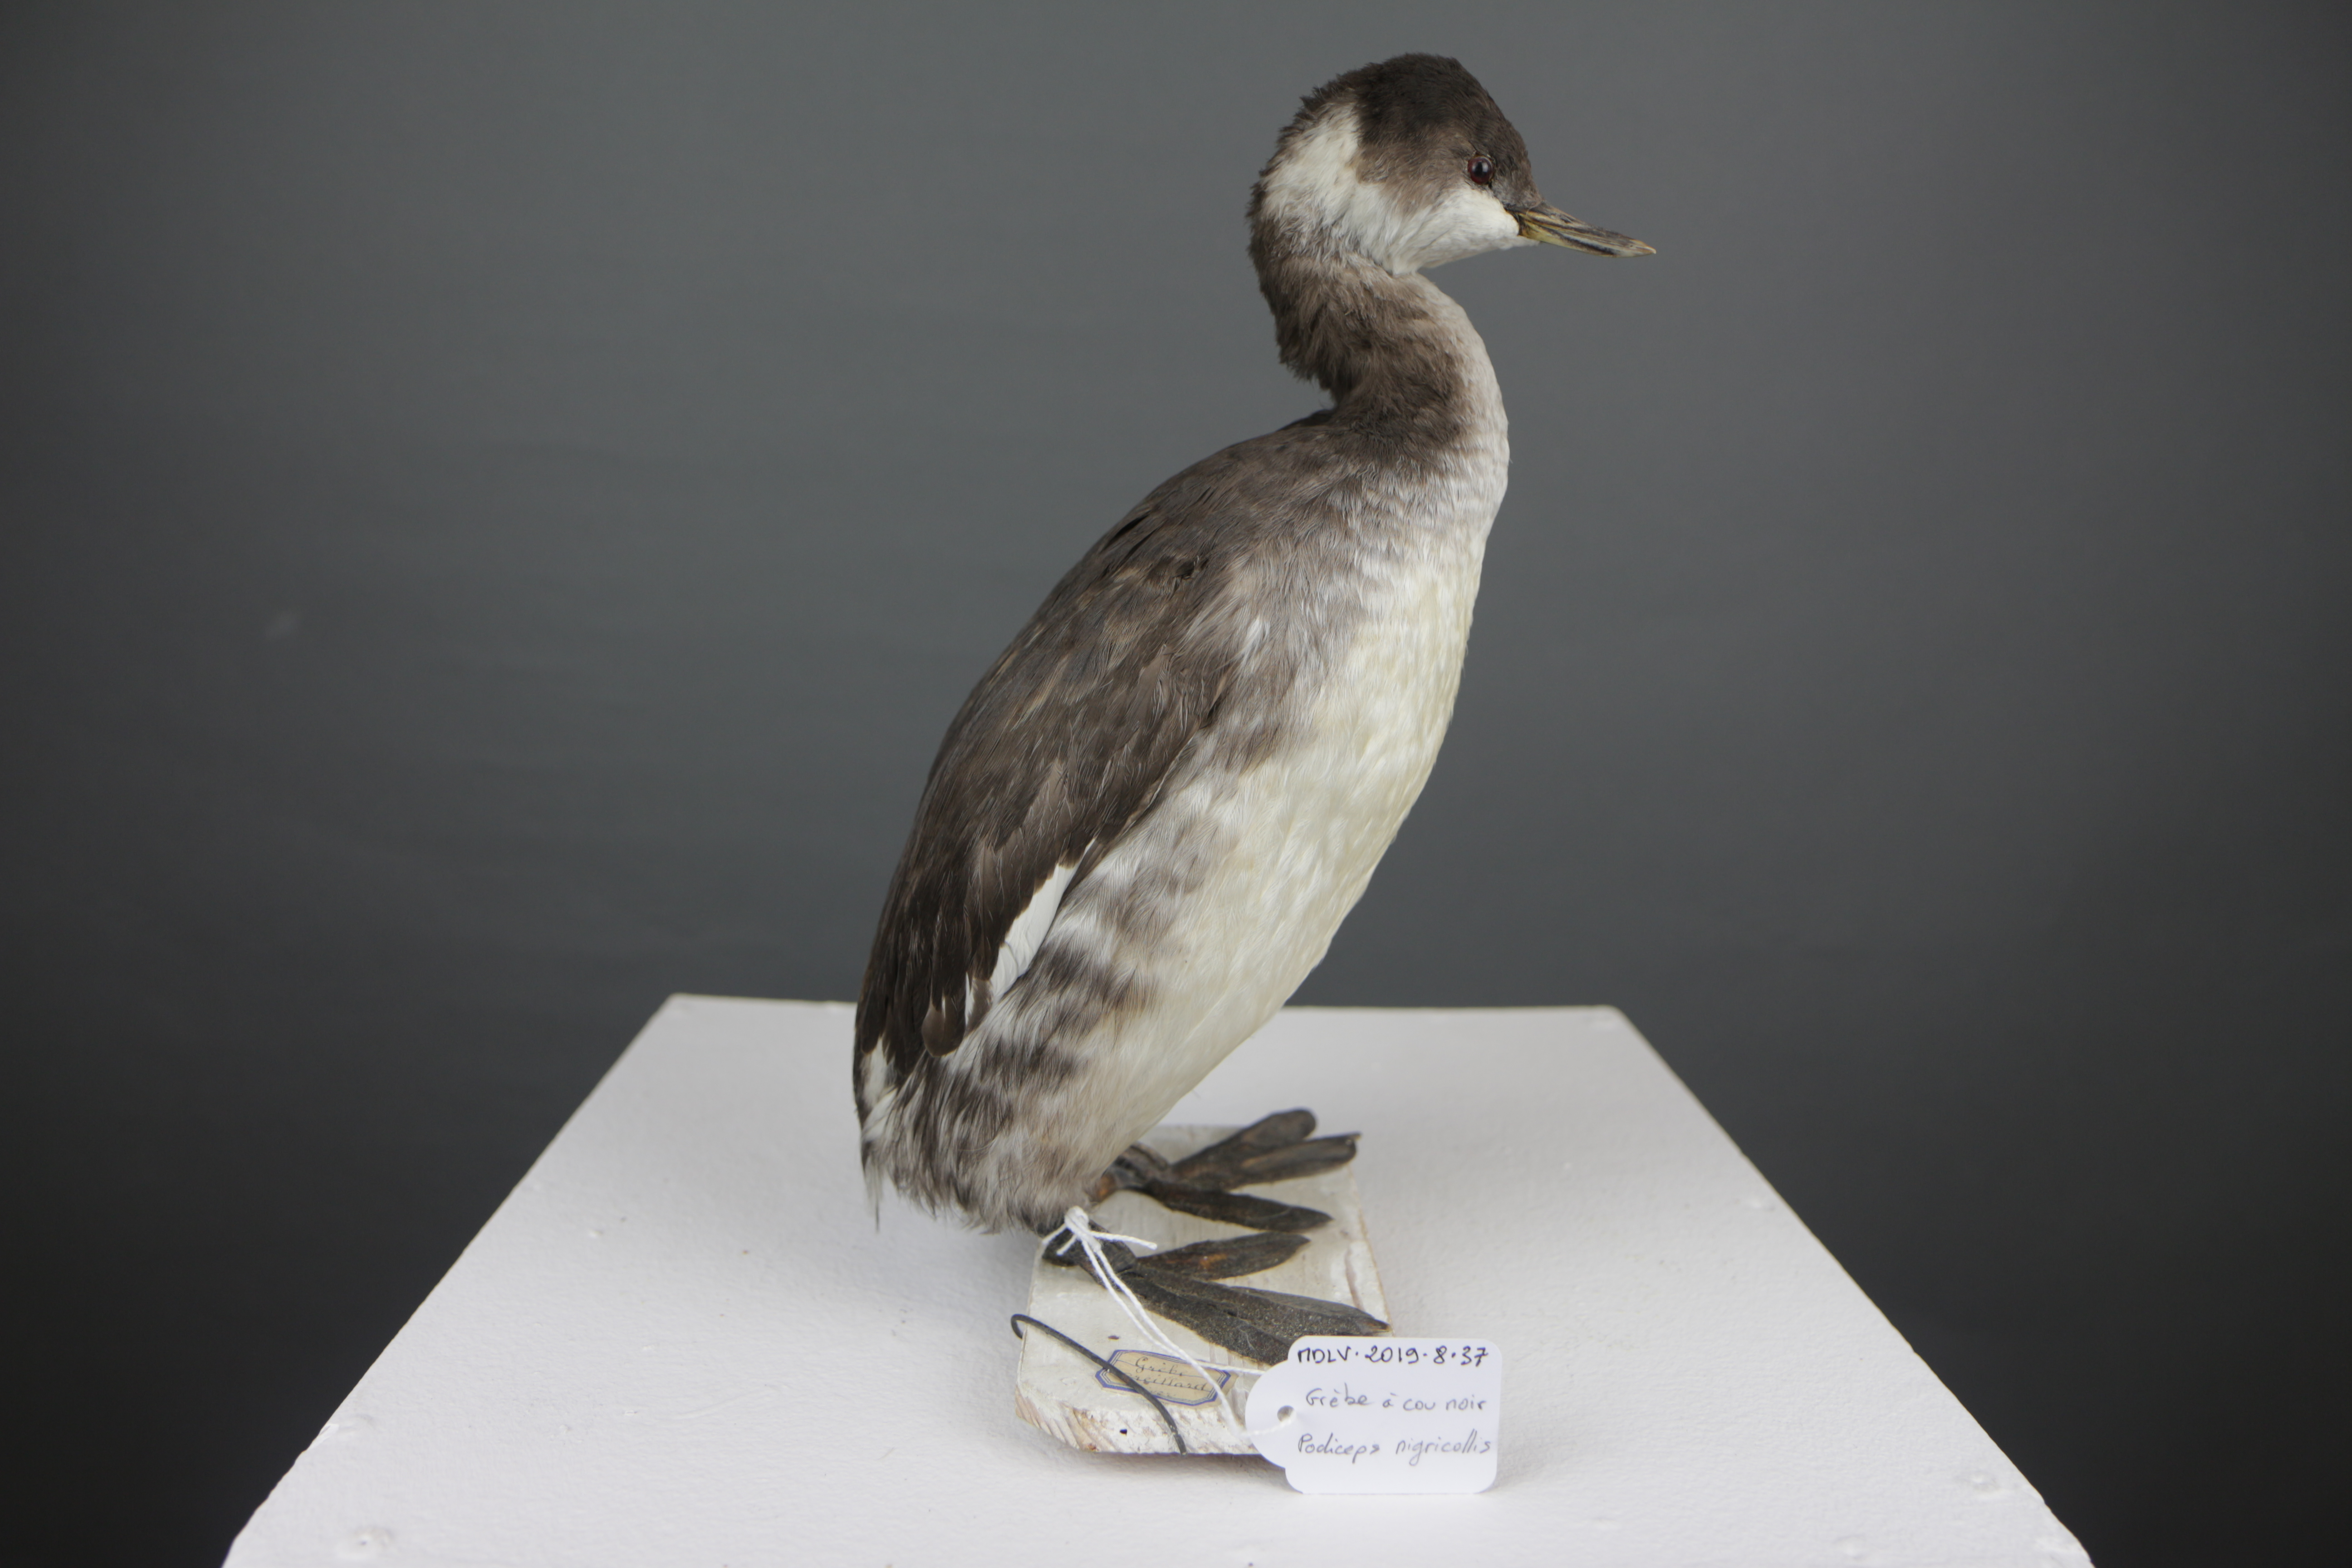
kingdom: Animalia
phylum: Chordata
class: Aves
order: Podicipediformes
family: Podicipedidae
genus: Podiceps
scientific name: Podiceps nigricollis
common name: Black-necked grebe
